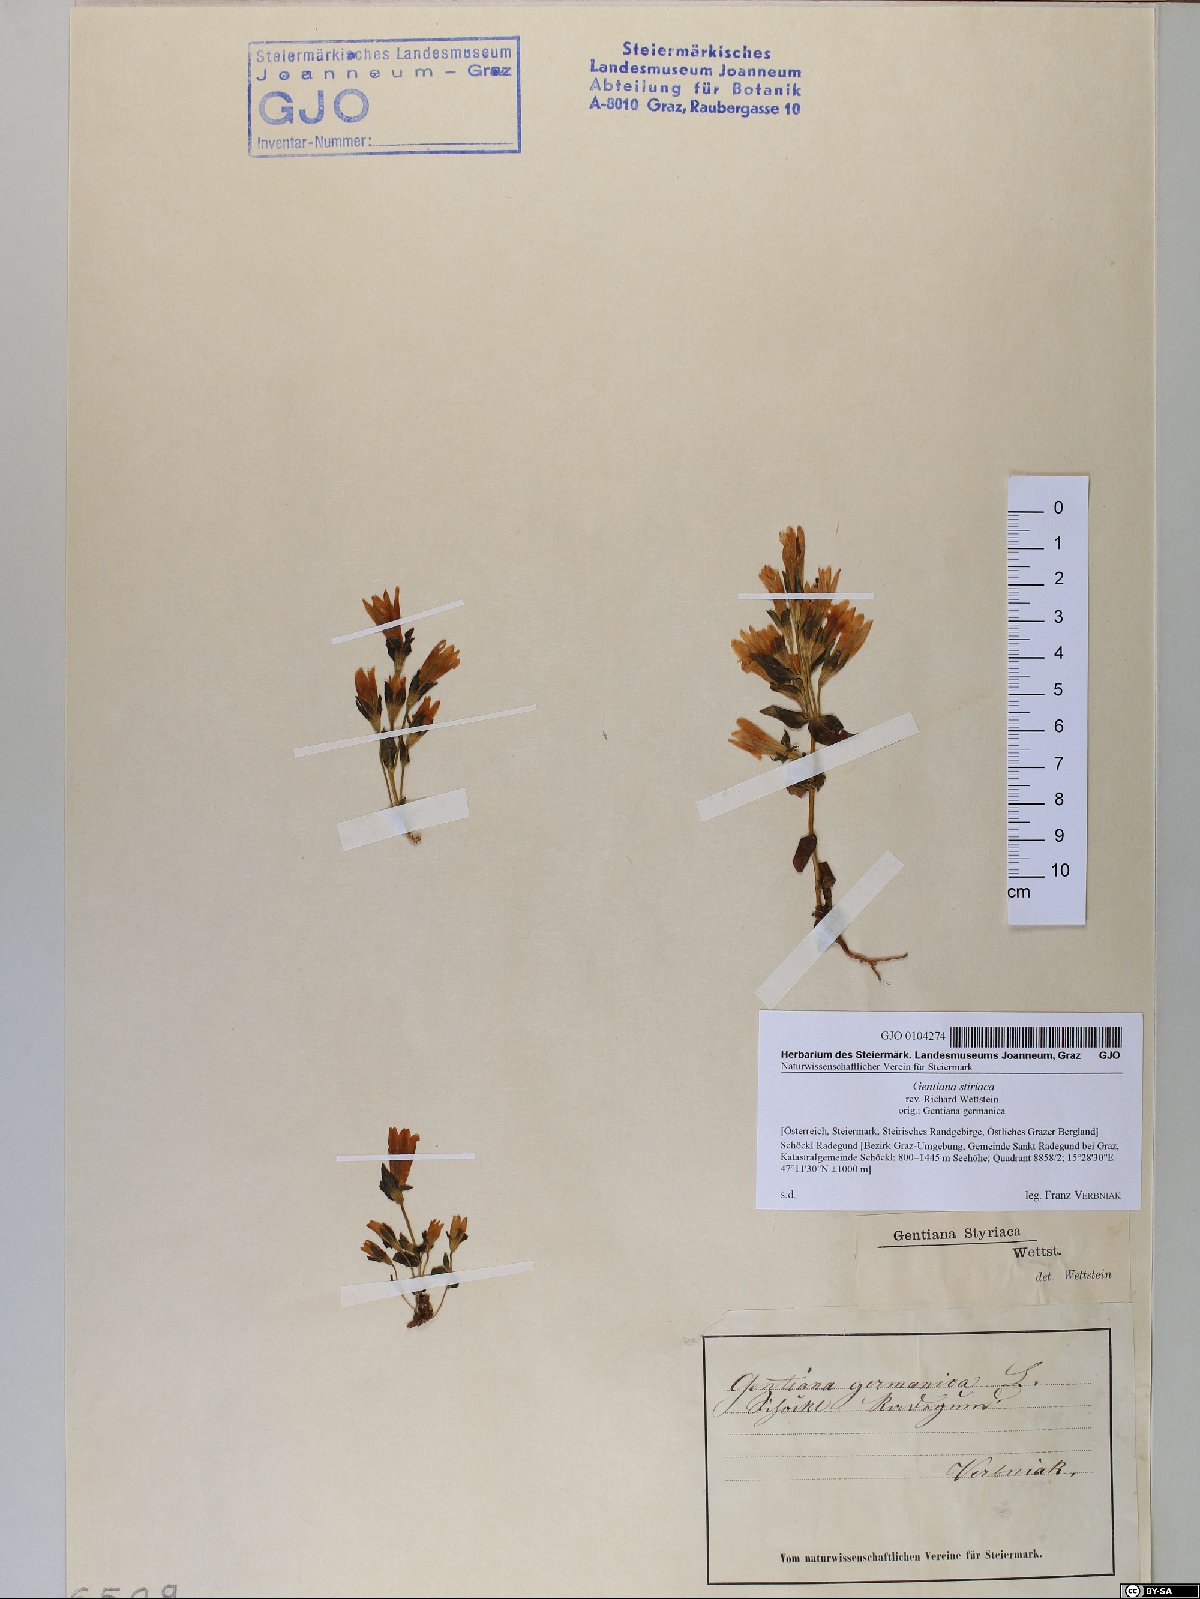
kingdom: Plantae
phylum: Tracheophyta
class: Magnoliopsida
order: Gentianales
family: Gentianaceae
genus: Gentianella
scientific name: Gentianella rhaetica
